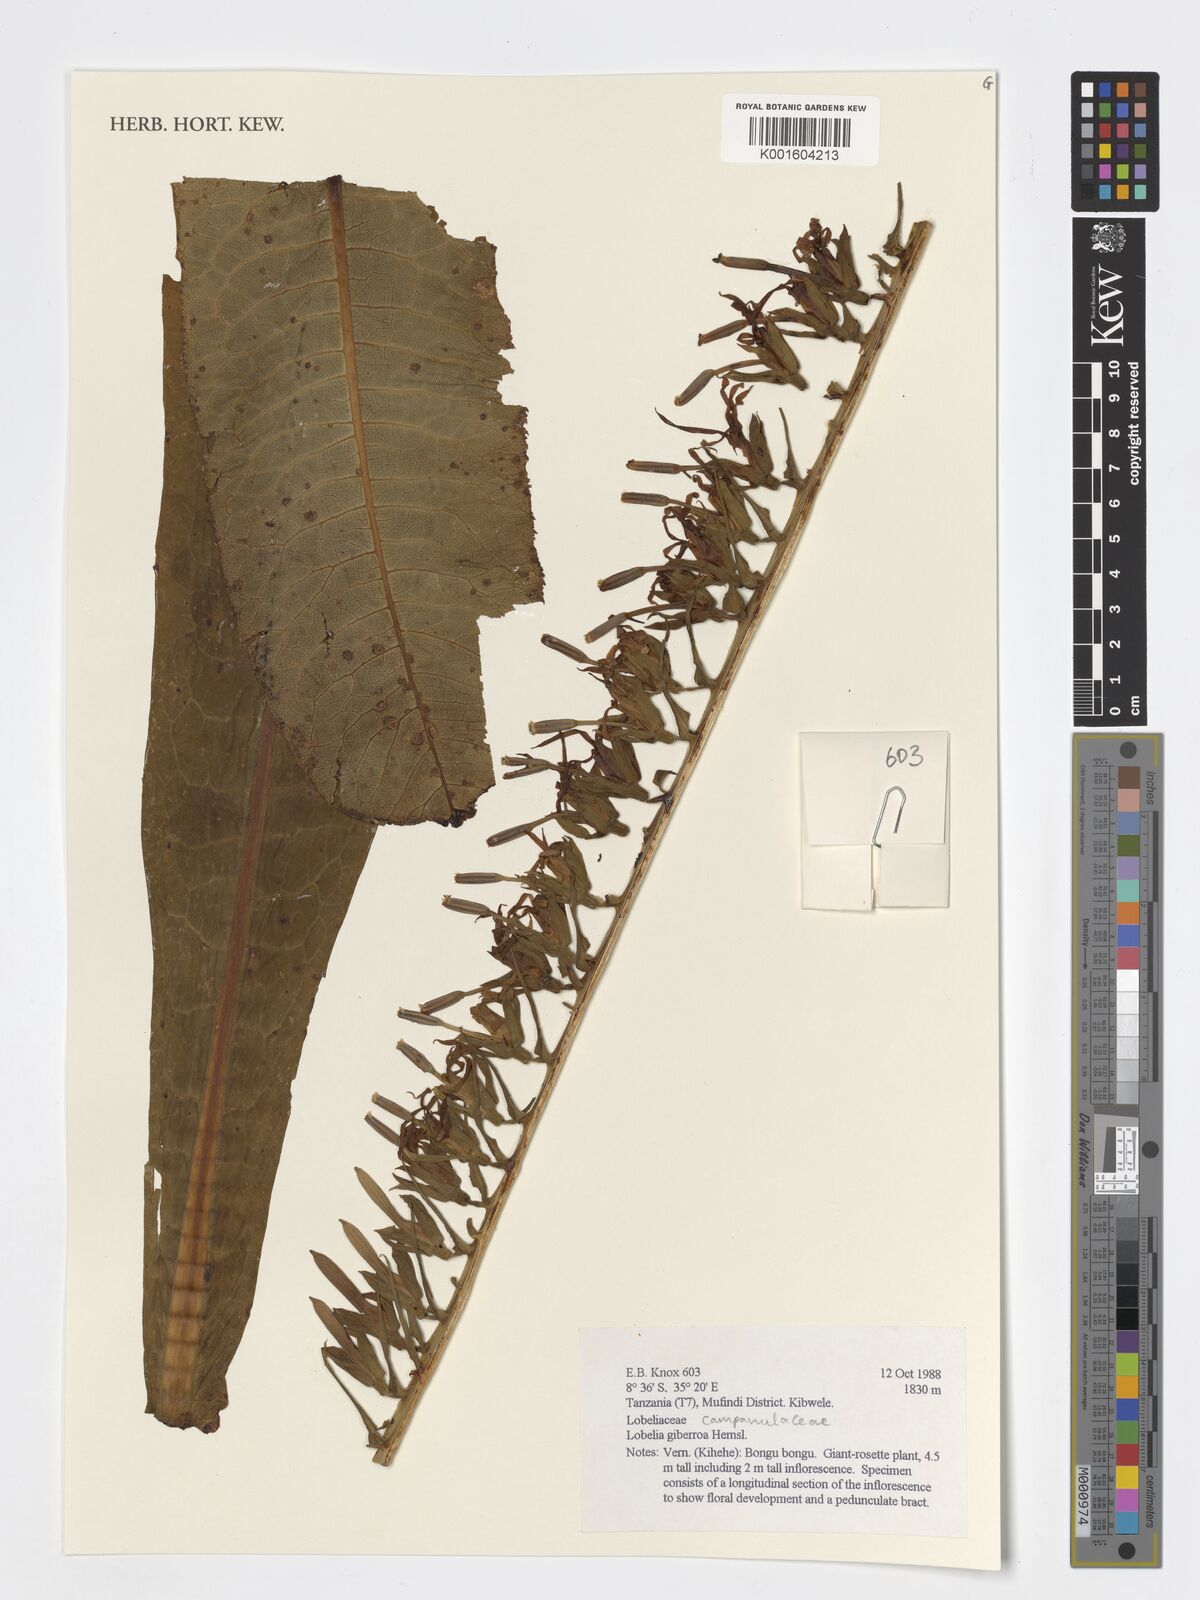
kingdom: Plantae
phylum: Tracheophyta
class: Magnoliopsida
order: Asterales
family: Campanulaceae
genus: Lobelia
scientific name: Lobelia giberroa
